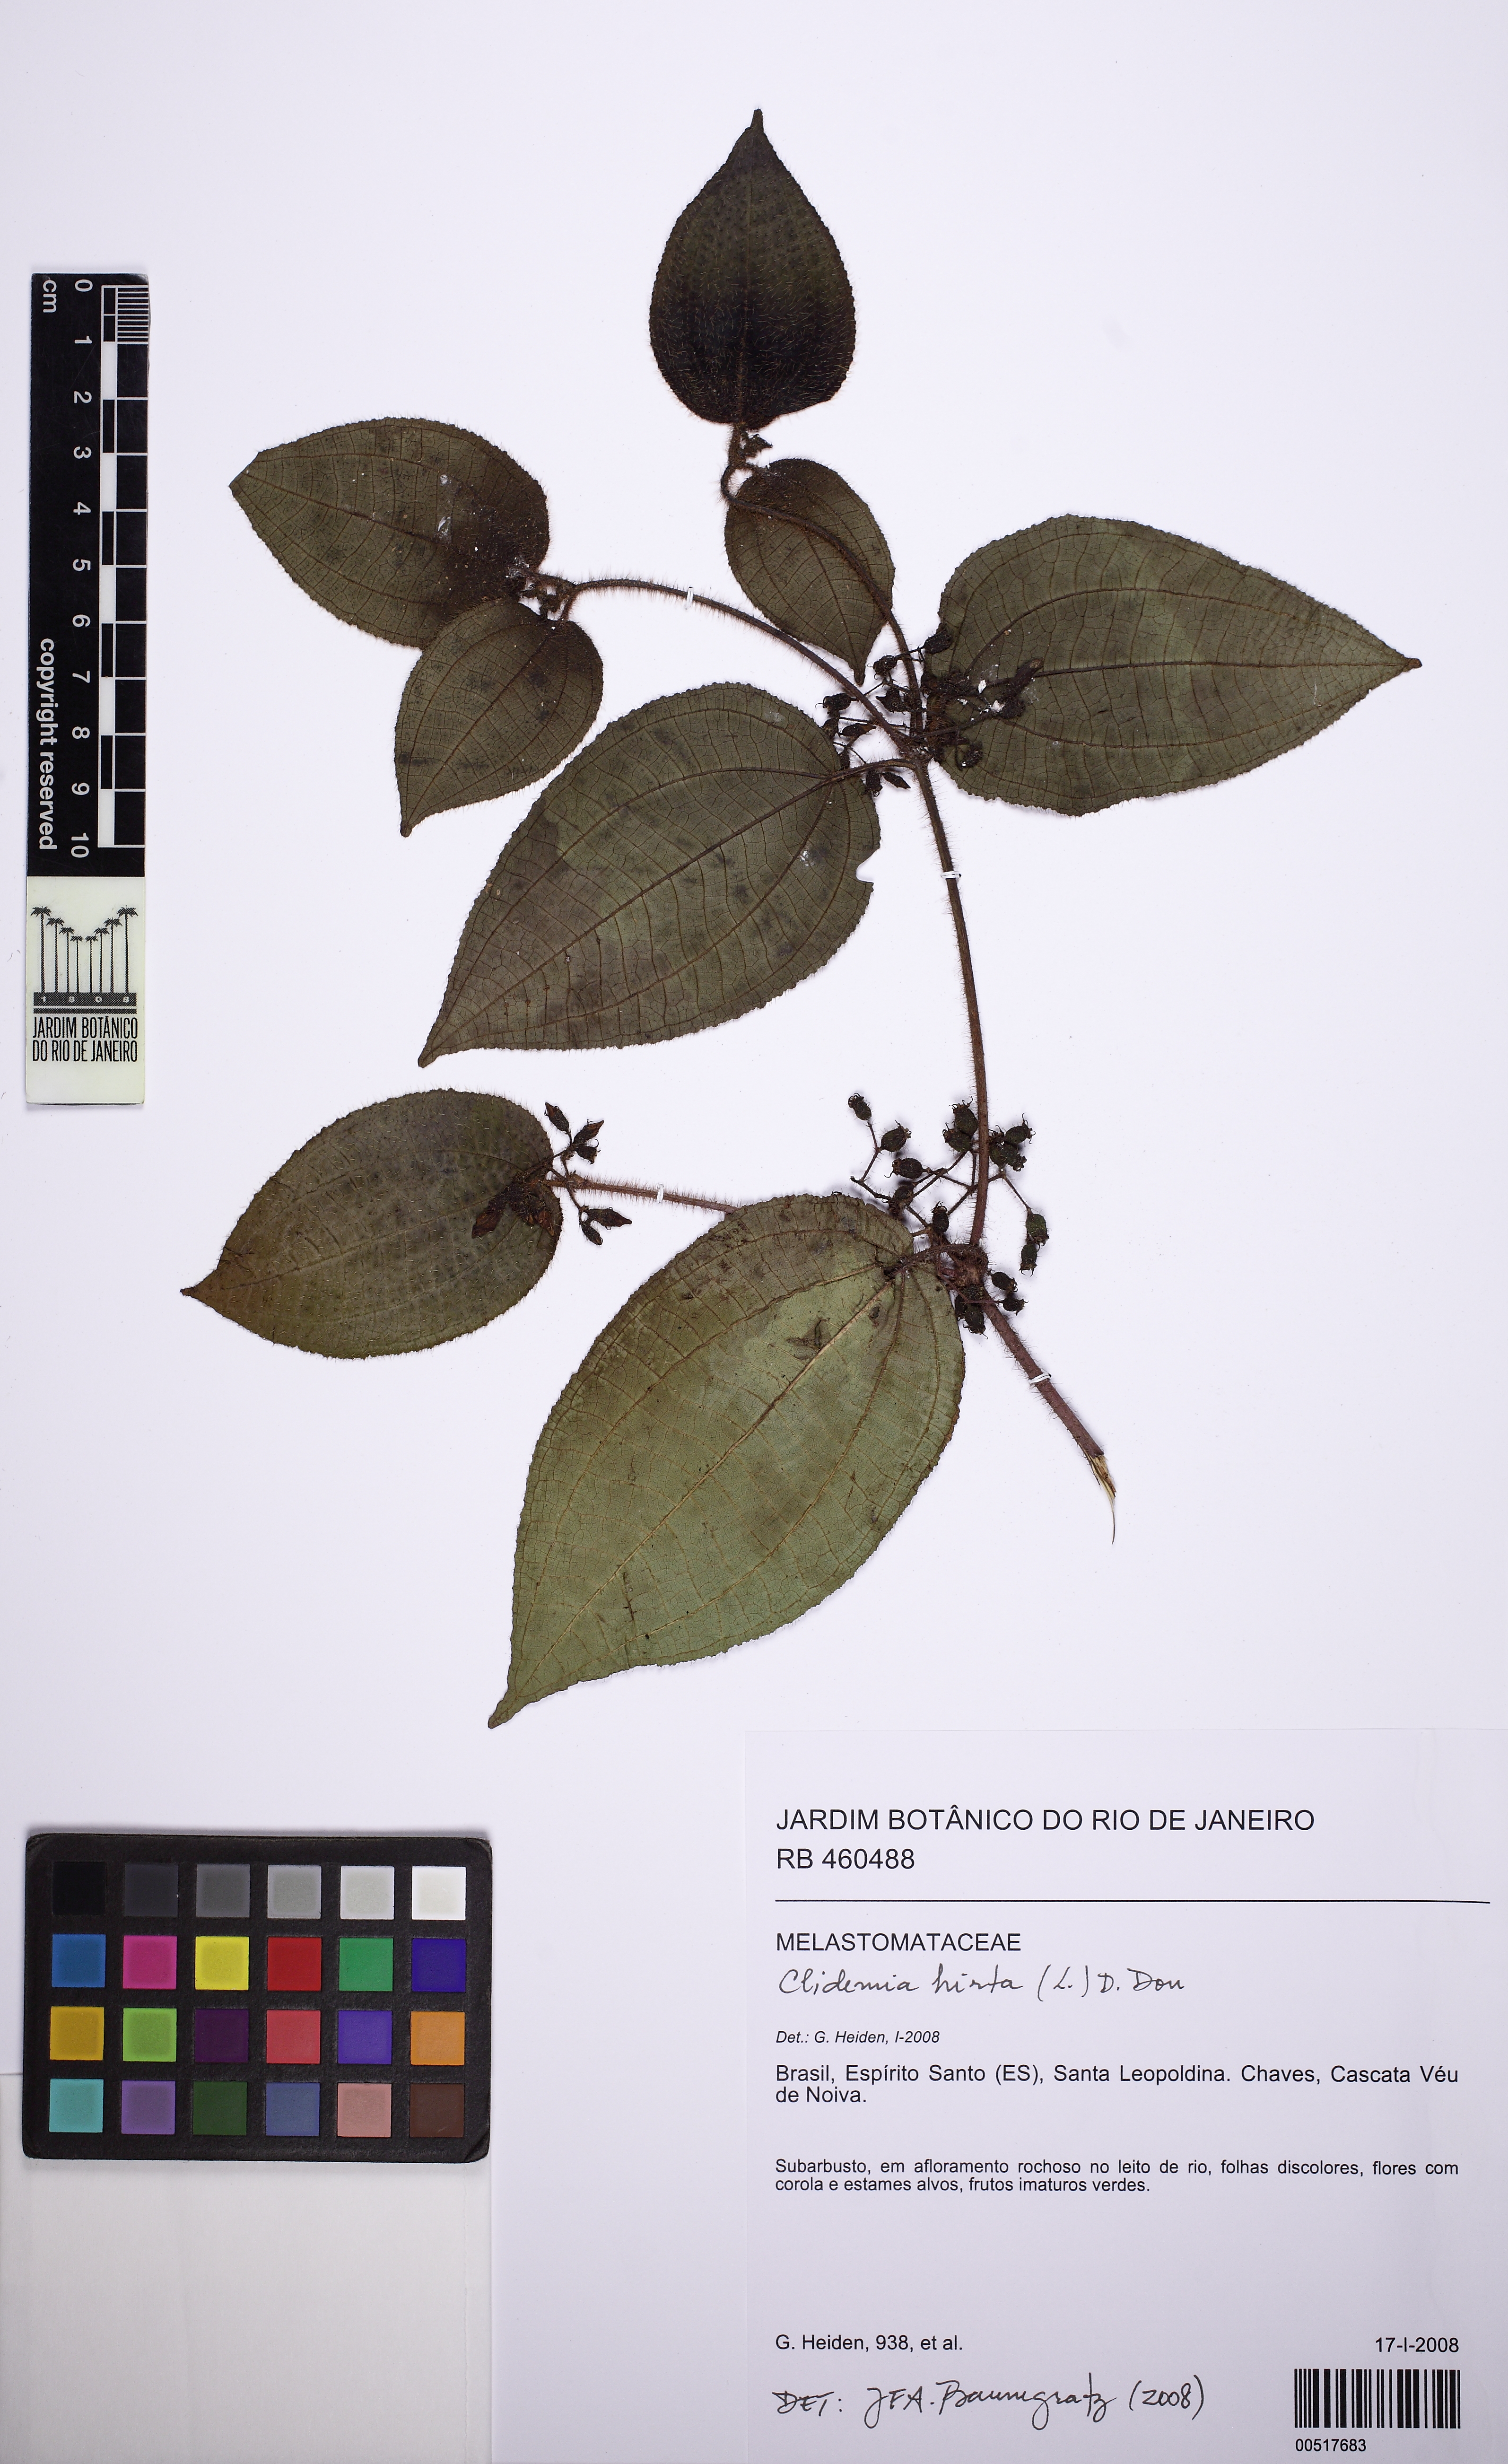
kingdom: Plantae
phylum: Tracheophyta
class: Magnoliopsida
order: Myrtales
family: Melastomataceae
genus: Miconia
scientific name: Miconia crenata
